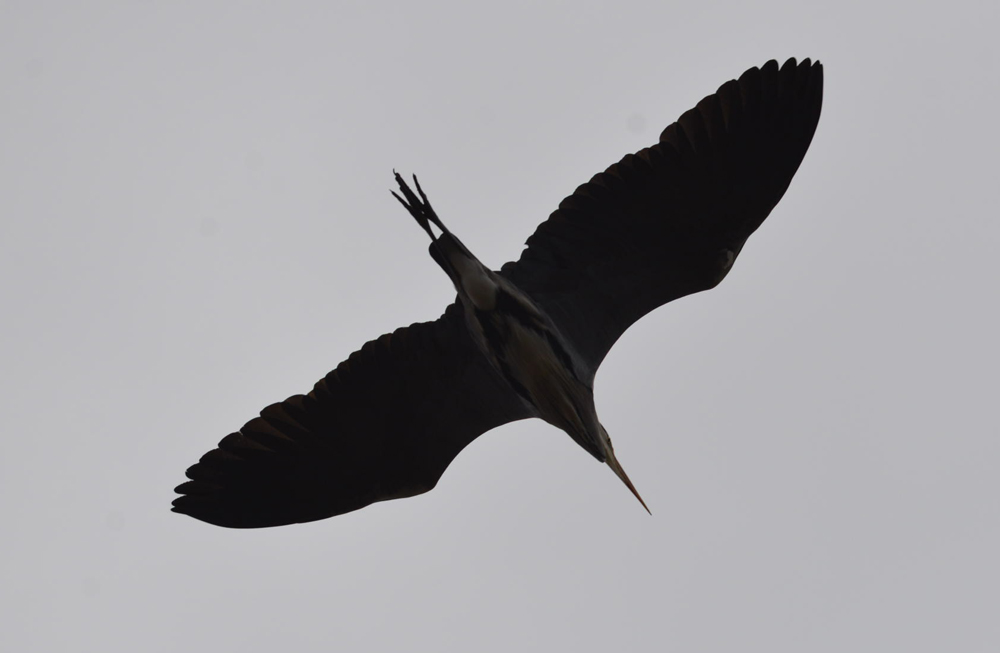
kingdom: Animalia
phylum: Chordata
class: Aves
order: Pelecaniformes
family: Ardeidae
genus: Ardea
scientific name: Ardea cinerea
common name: Grey heron
